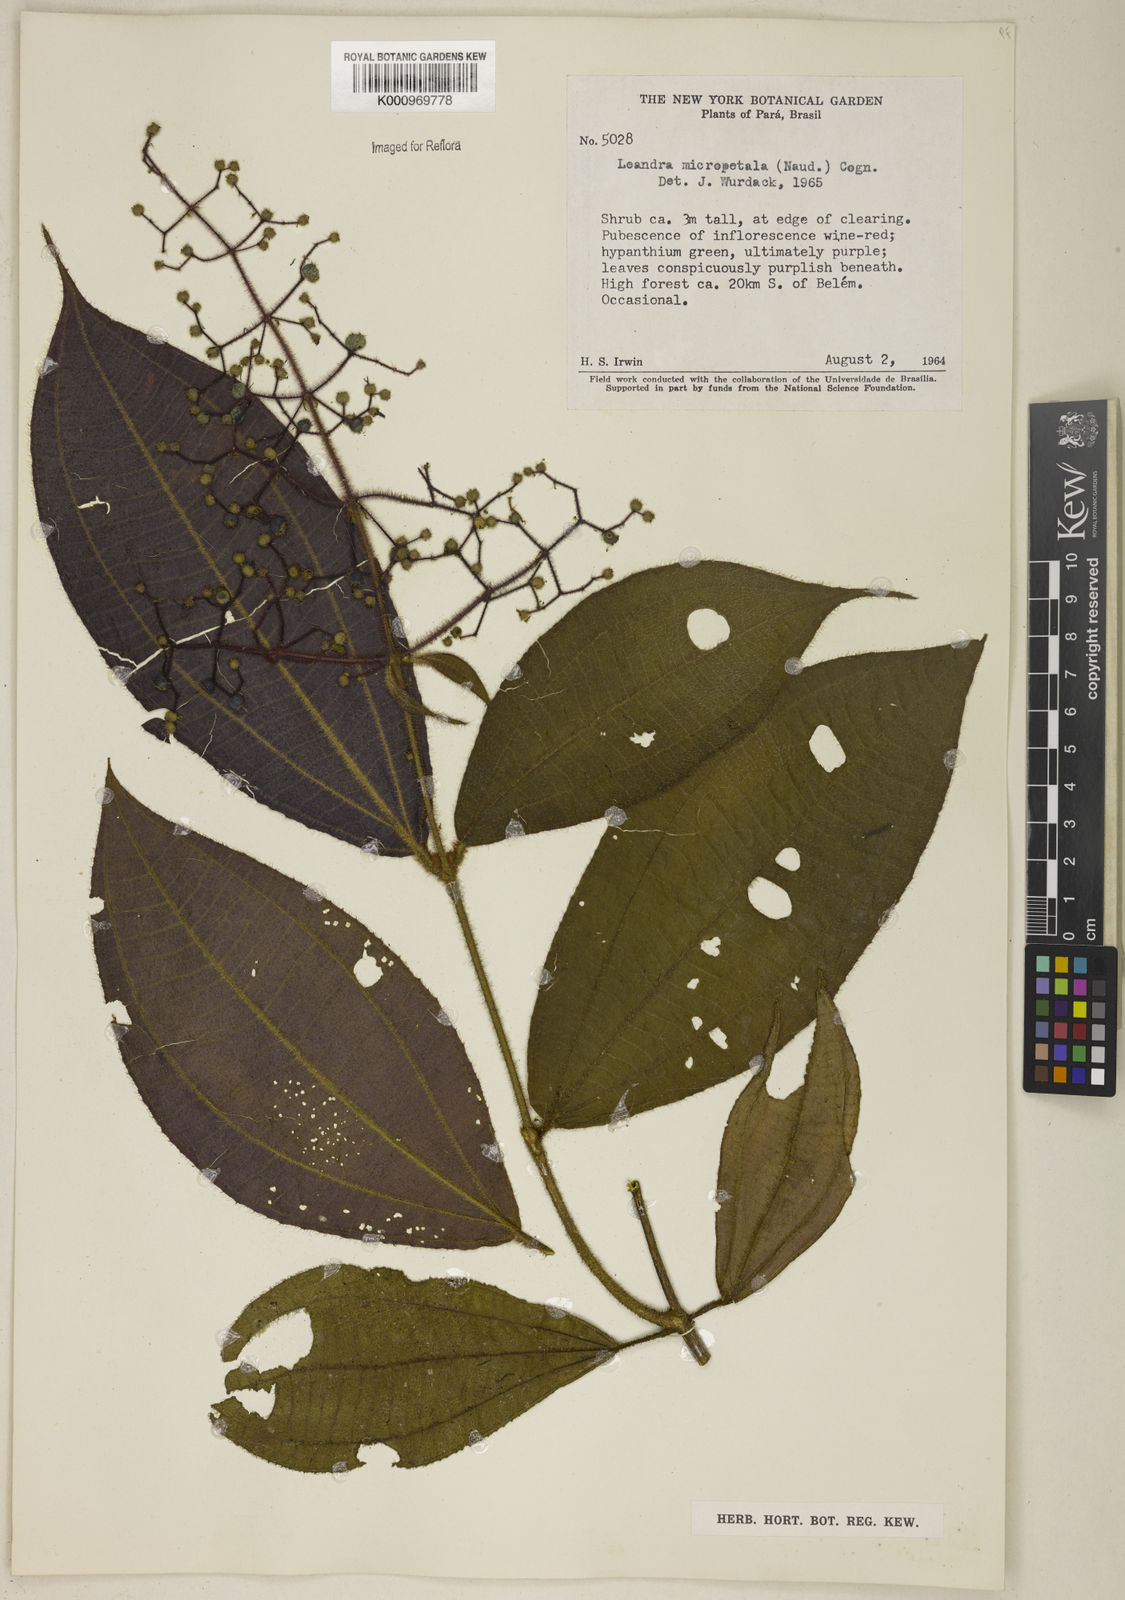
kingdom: Plantae
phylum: Tracheophyta
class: Magnoliopsida
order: Myrtales
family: Melastomataceae
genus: Miconia
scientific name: Miconia nanopetala
